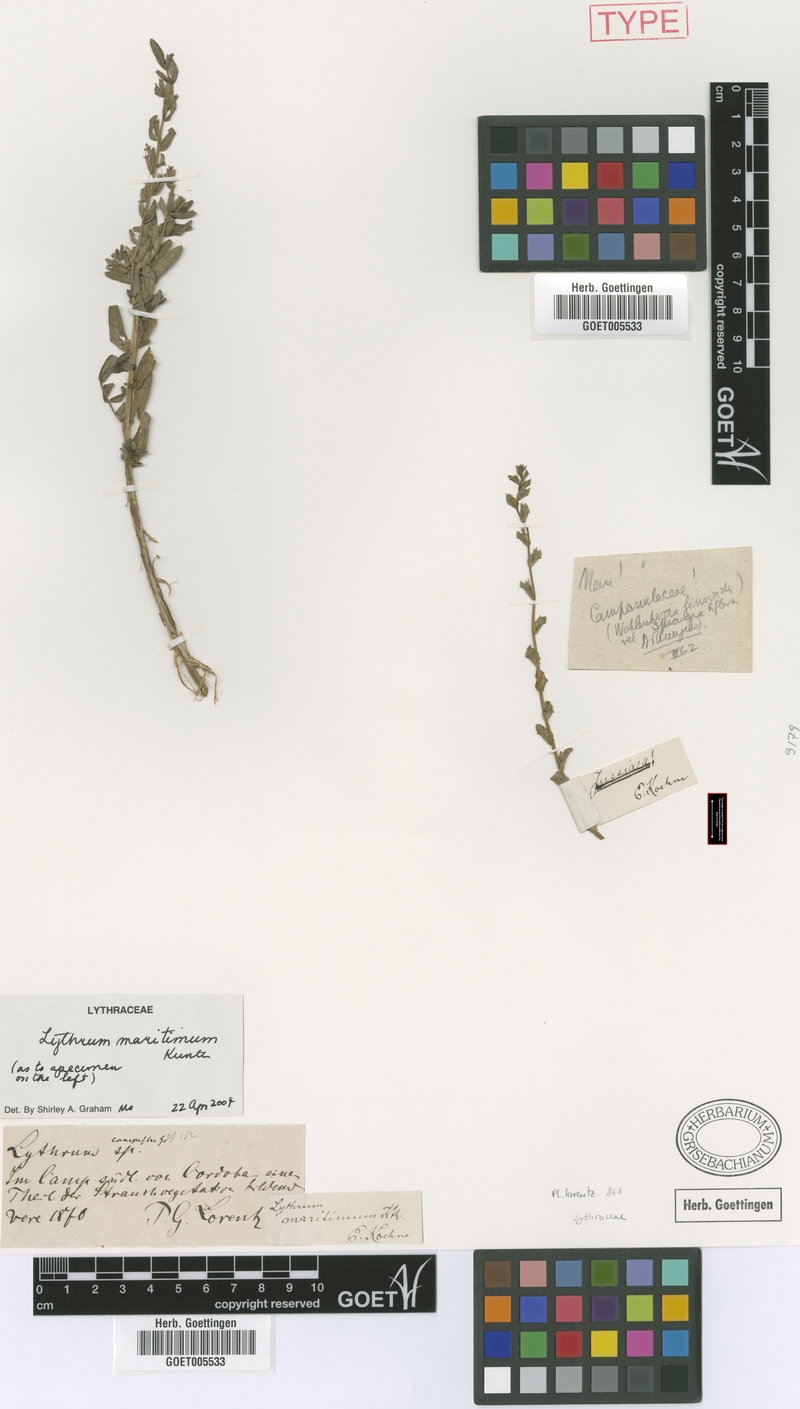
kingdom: Plantae
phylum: Tracheophyta
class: Magnoliopsida
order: Myrtales
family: Lythraceae
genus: Lythrum
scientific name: Lythrum maritimum
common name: Pukamole
